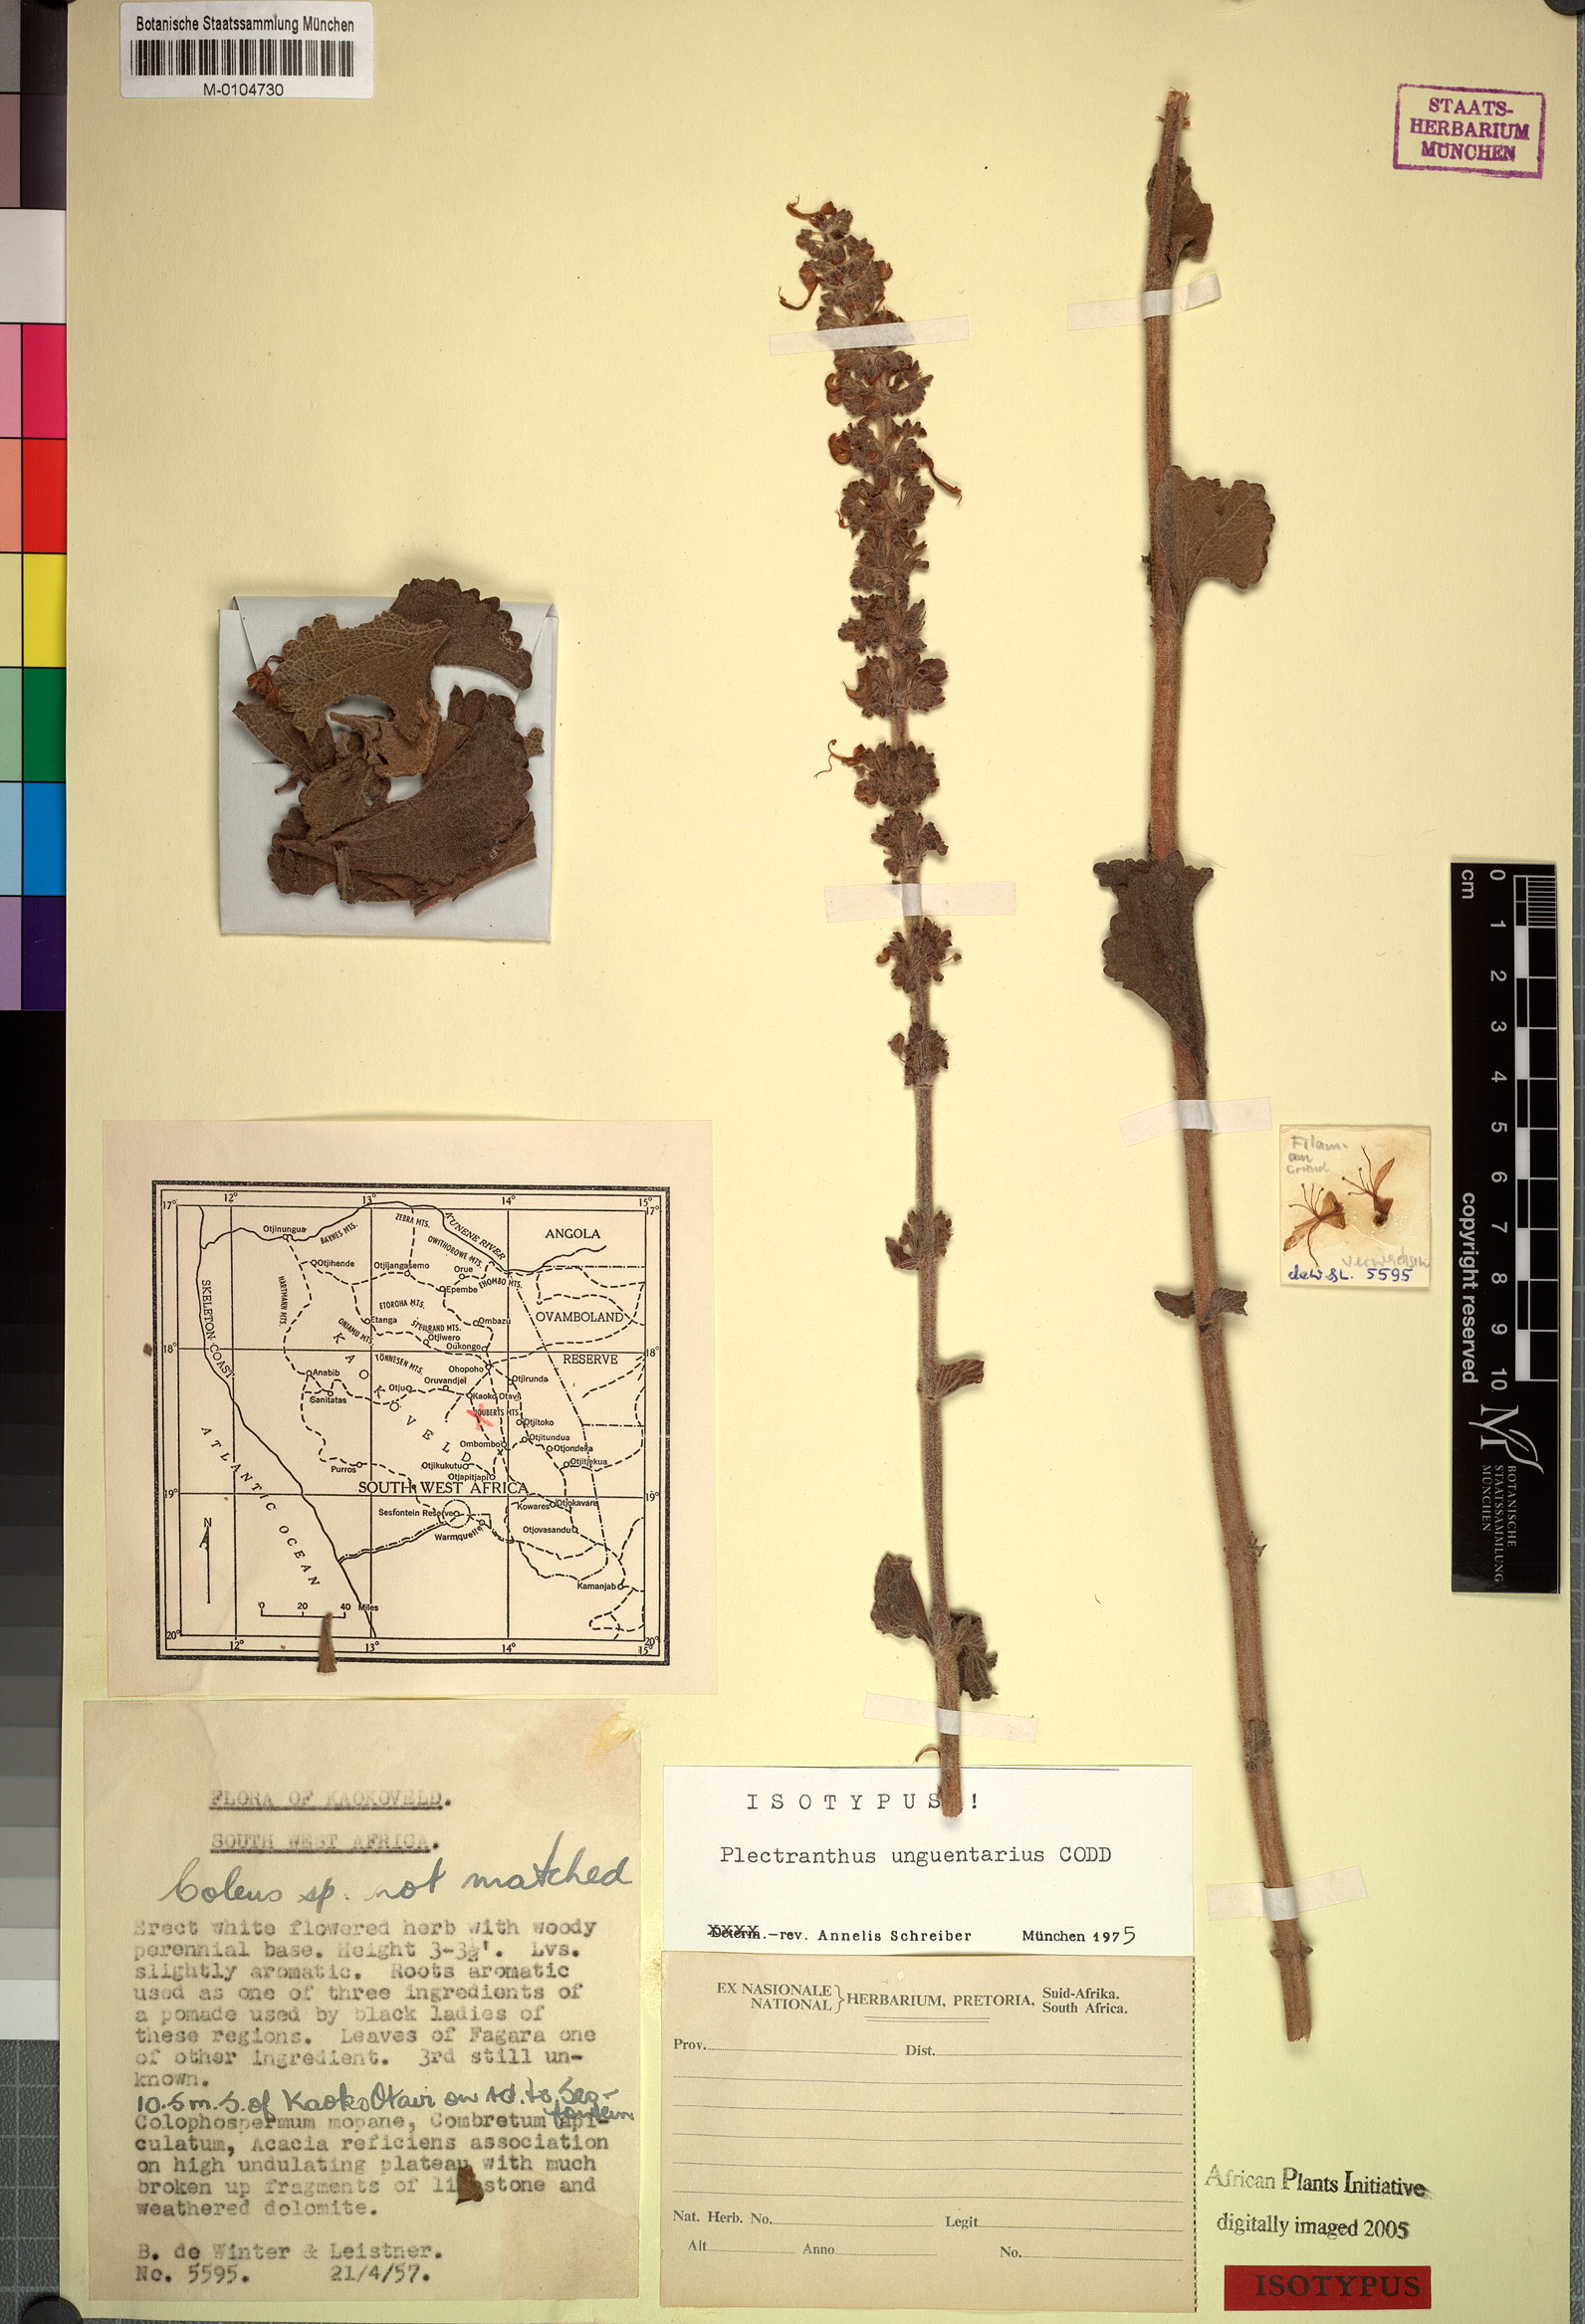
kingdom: Plantae
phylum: Tracheophyta
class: Magnoliopsida
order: Lamiales
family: Lamiaceae
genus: Coleus
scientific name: Coleus unguentarius
